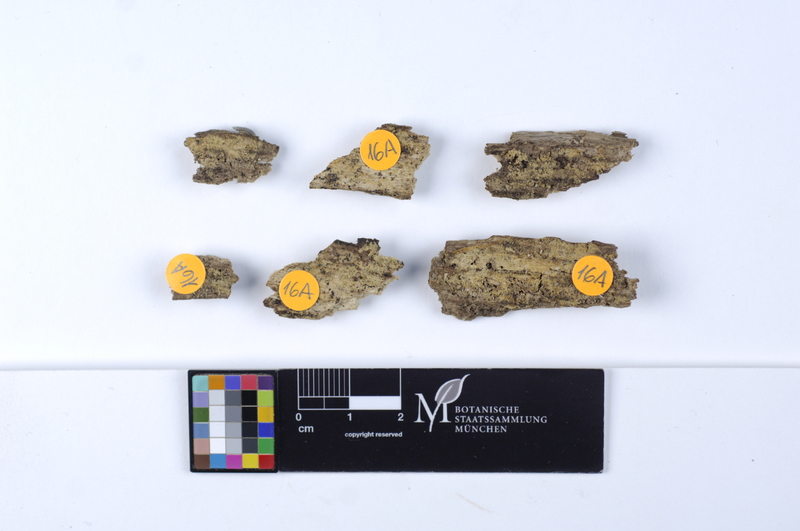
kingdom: Plantae
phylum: Tracheophyta
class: Magnoliopsida
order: Fagales
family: Fagaceae
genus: Quercus
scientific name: Quercus
